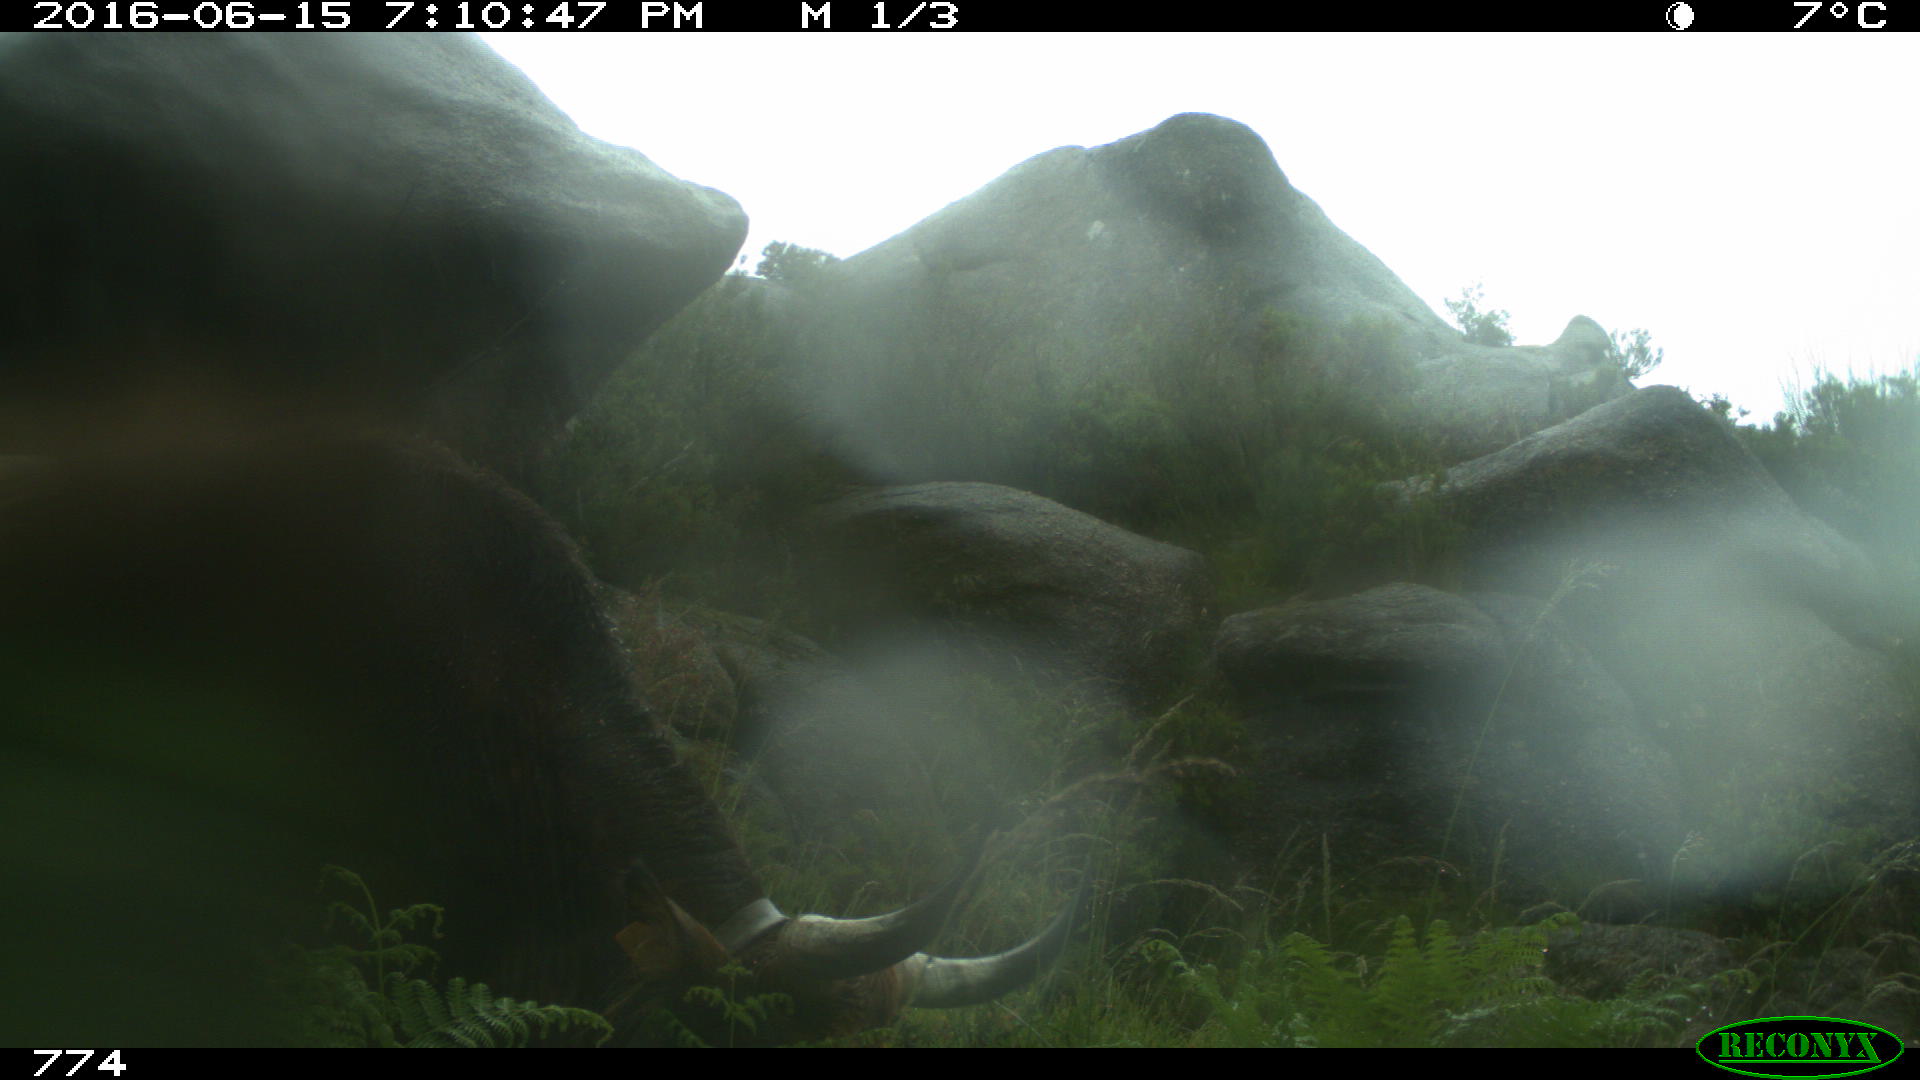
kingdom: Animalia
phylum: Chordata
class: Mammalia
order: Artiodactyla
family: Bovidae
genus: Bos
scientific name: Bos taurus
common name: Domesticated cattle
